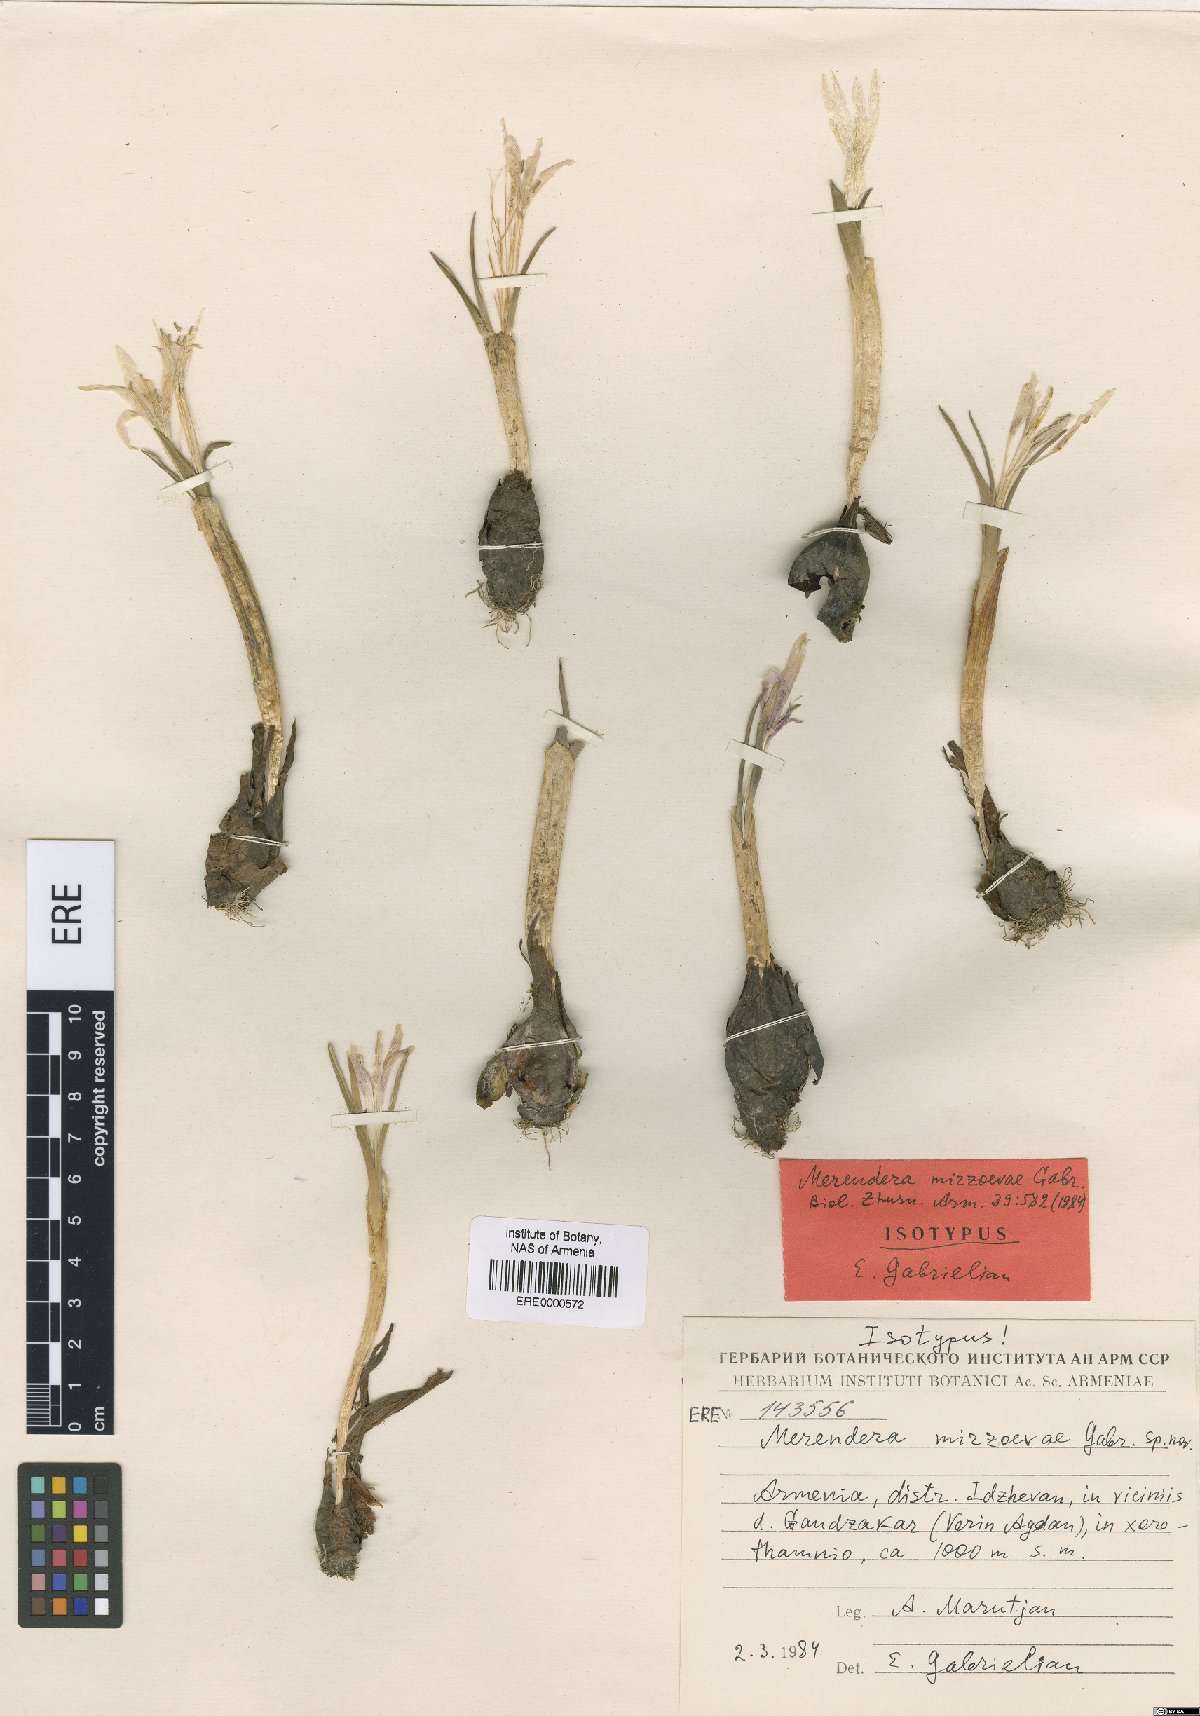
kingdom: Plantae
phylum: Tracheophyta
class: Liliopsida
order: Liliales
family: Colchicaceae
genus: Colchicum
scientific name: Colchicum trigynum
